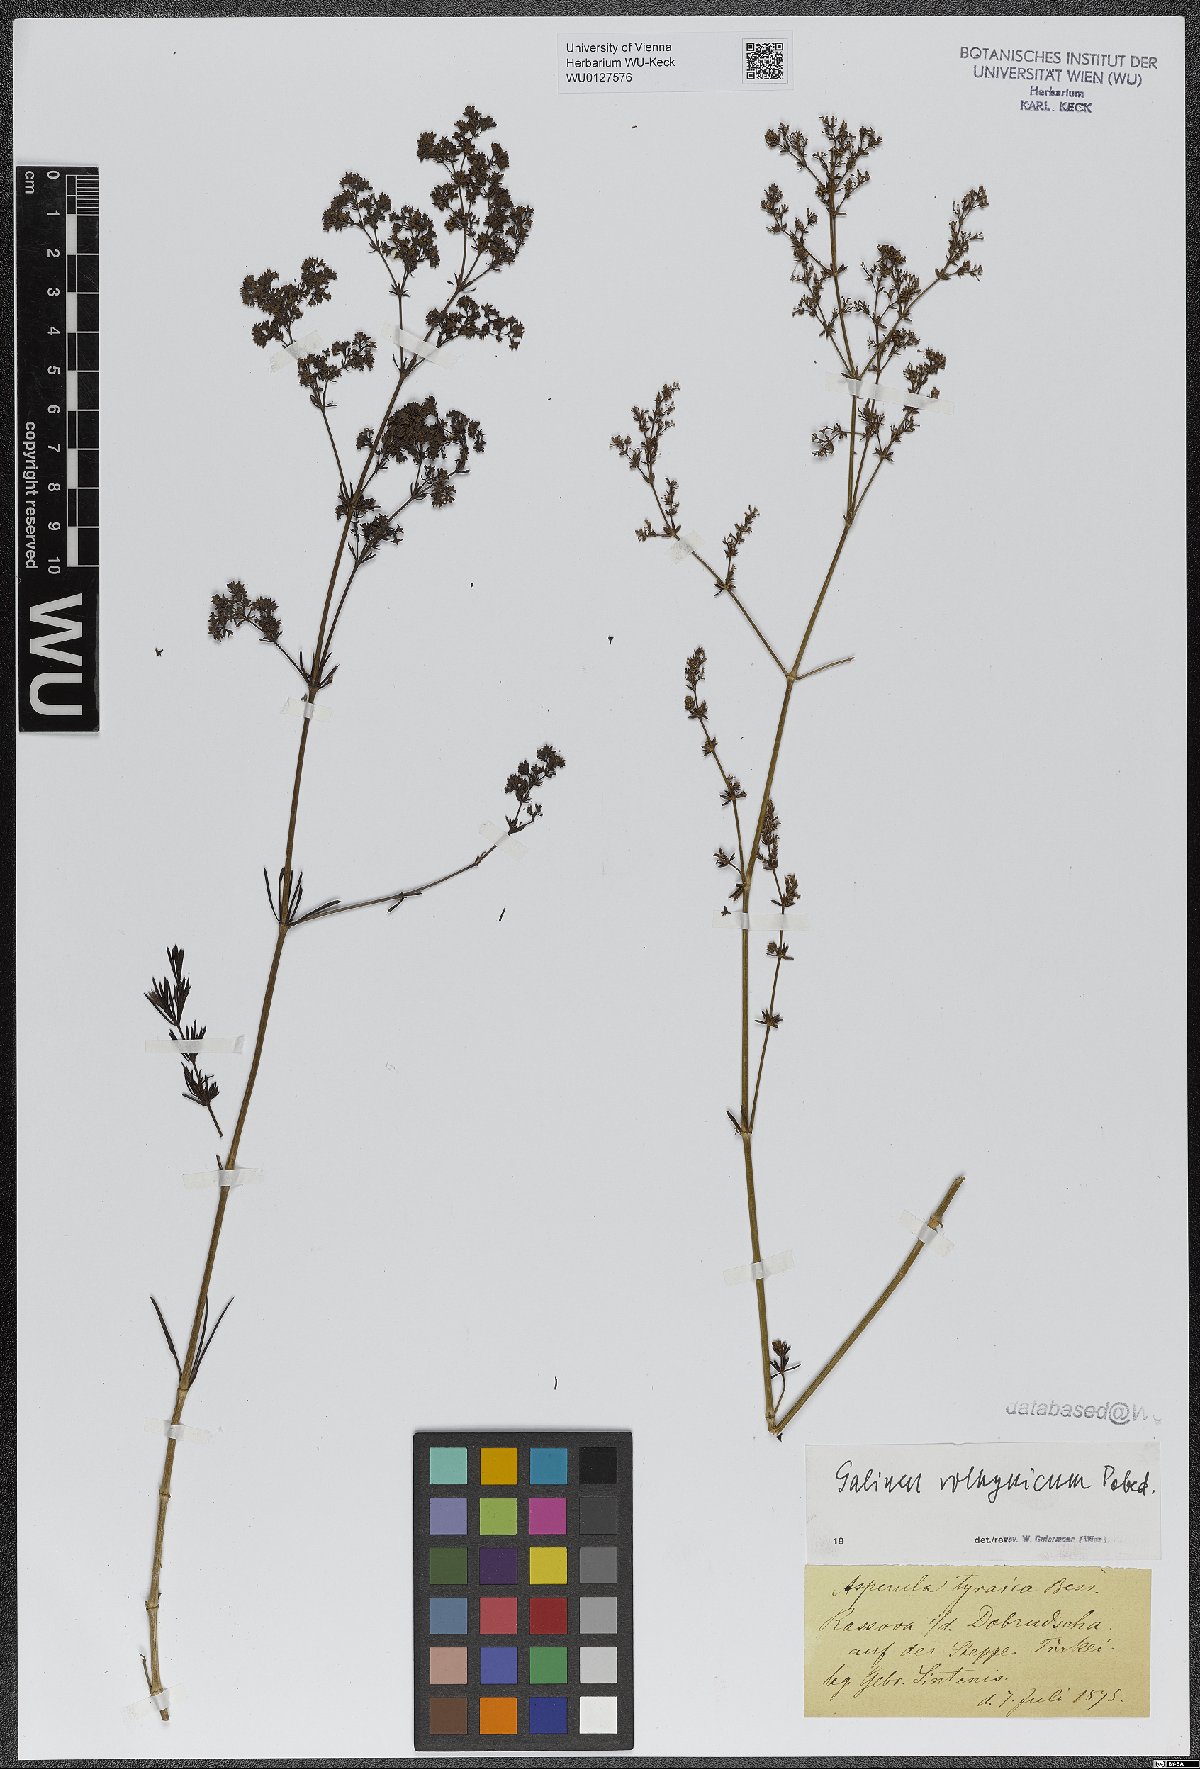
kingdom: Plantae
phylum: Tracheophyta
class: Magnoliopsida
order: Gentianales
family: Rubiaceae
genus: Galium
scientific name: Galium volhynicum
